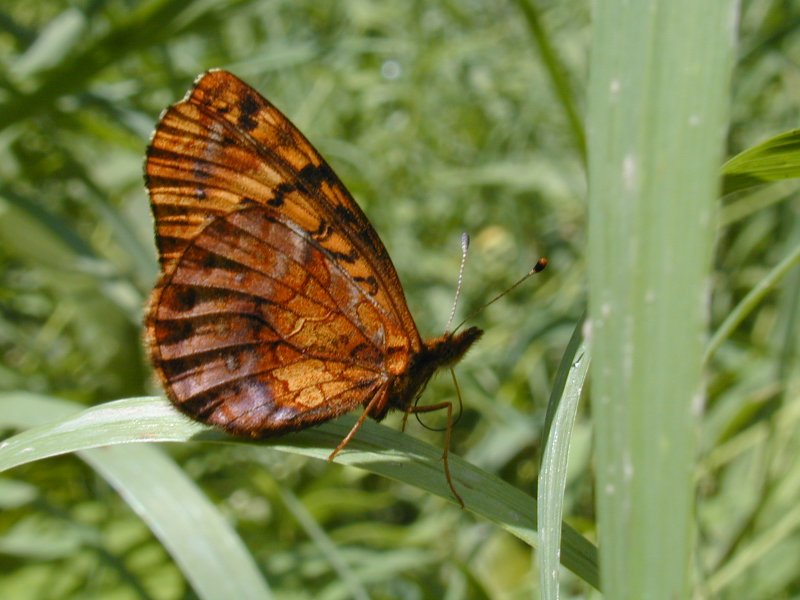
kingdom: Animalia
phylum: Arthropoda
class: Insecta
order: Lepidoptera
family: Nymphalidae
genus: Clossiana
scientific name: Clossiana toddi
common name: Meadow Fritillary
